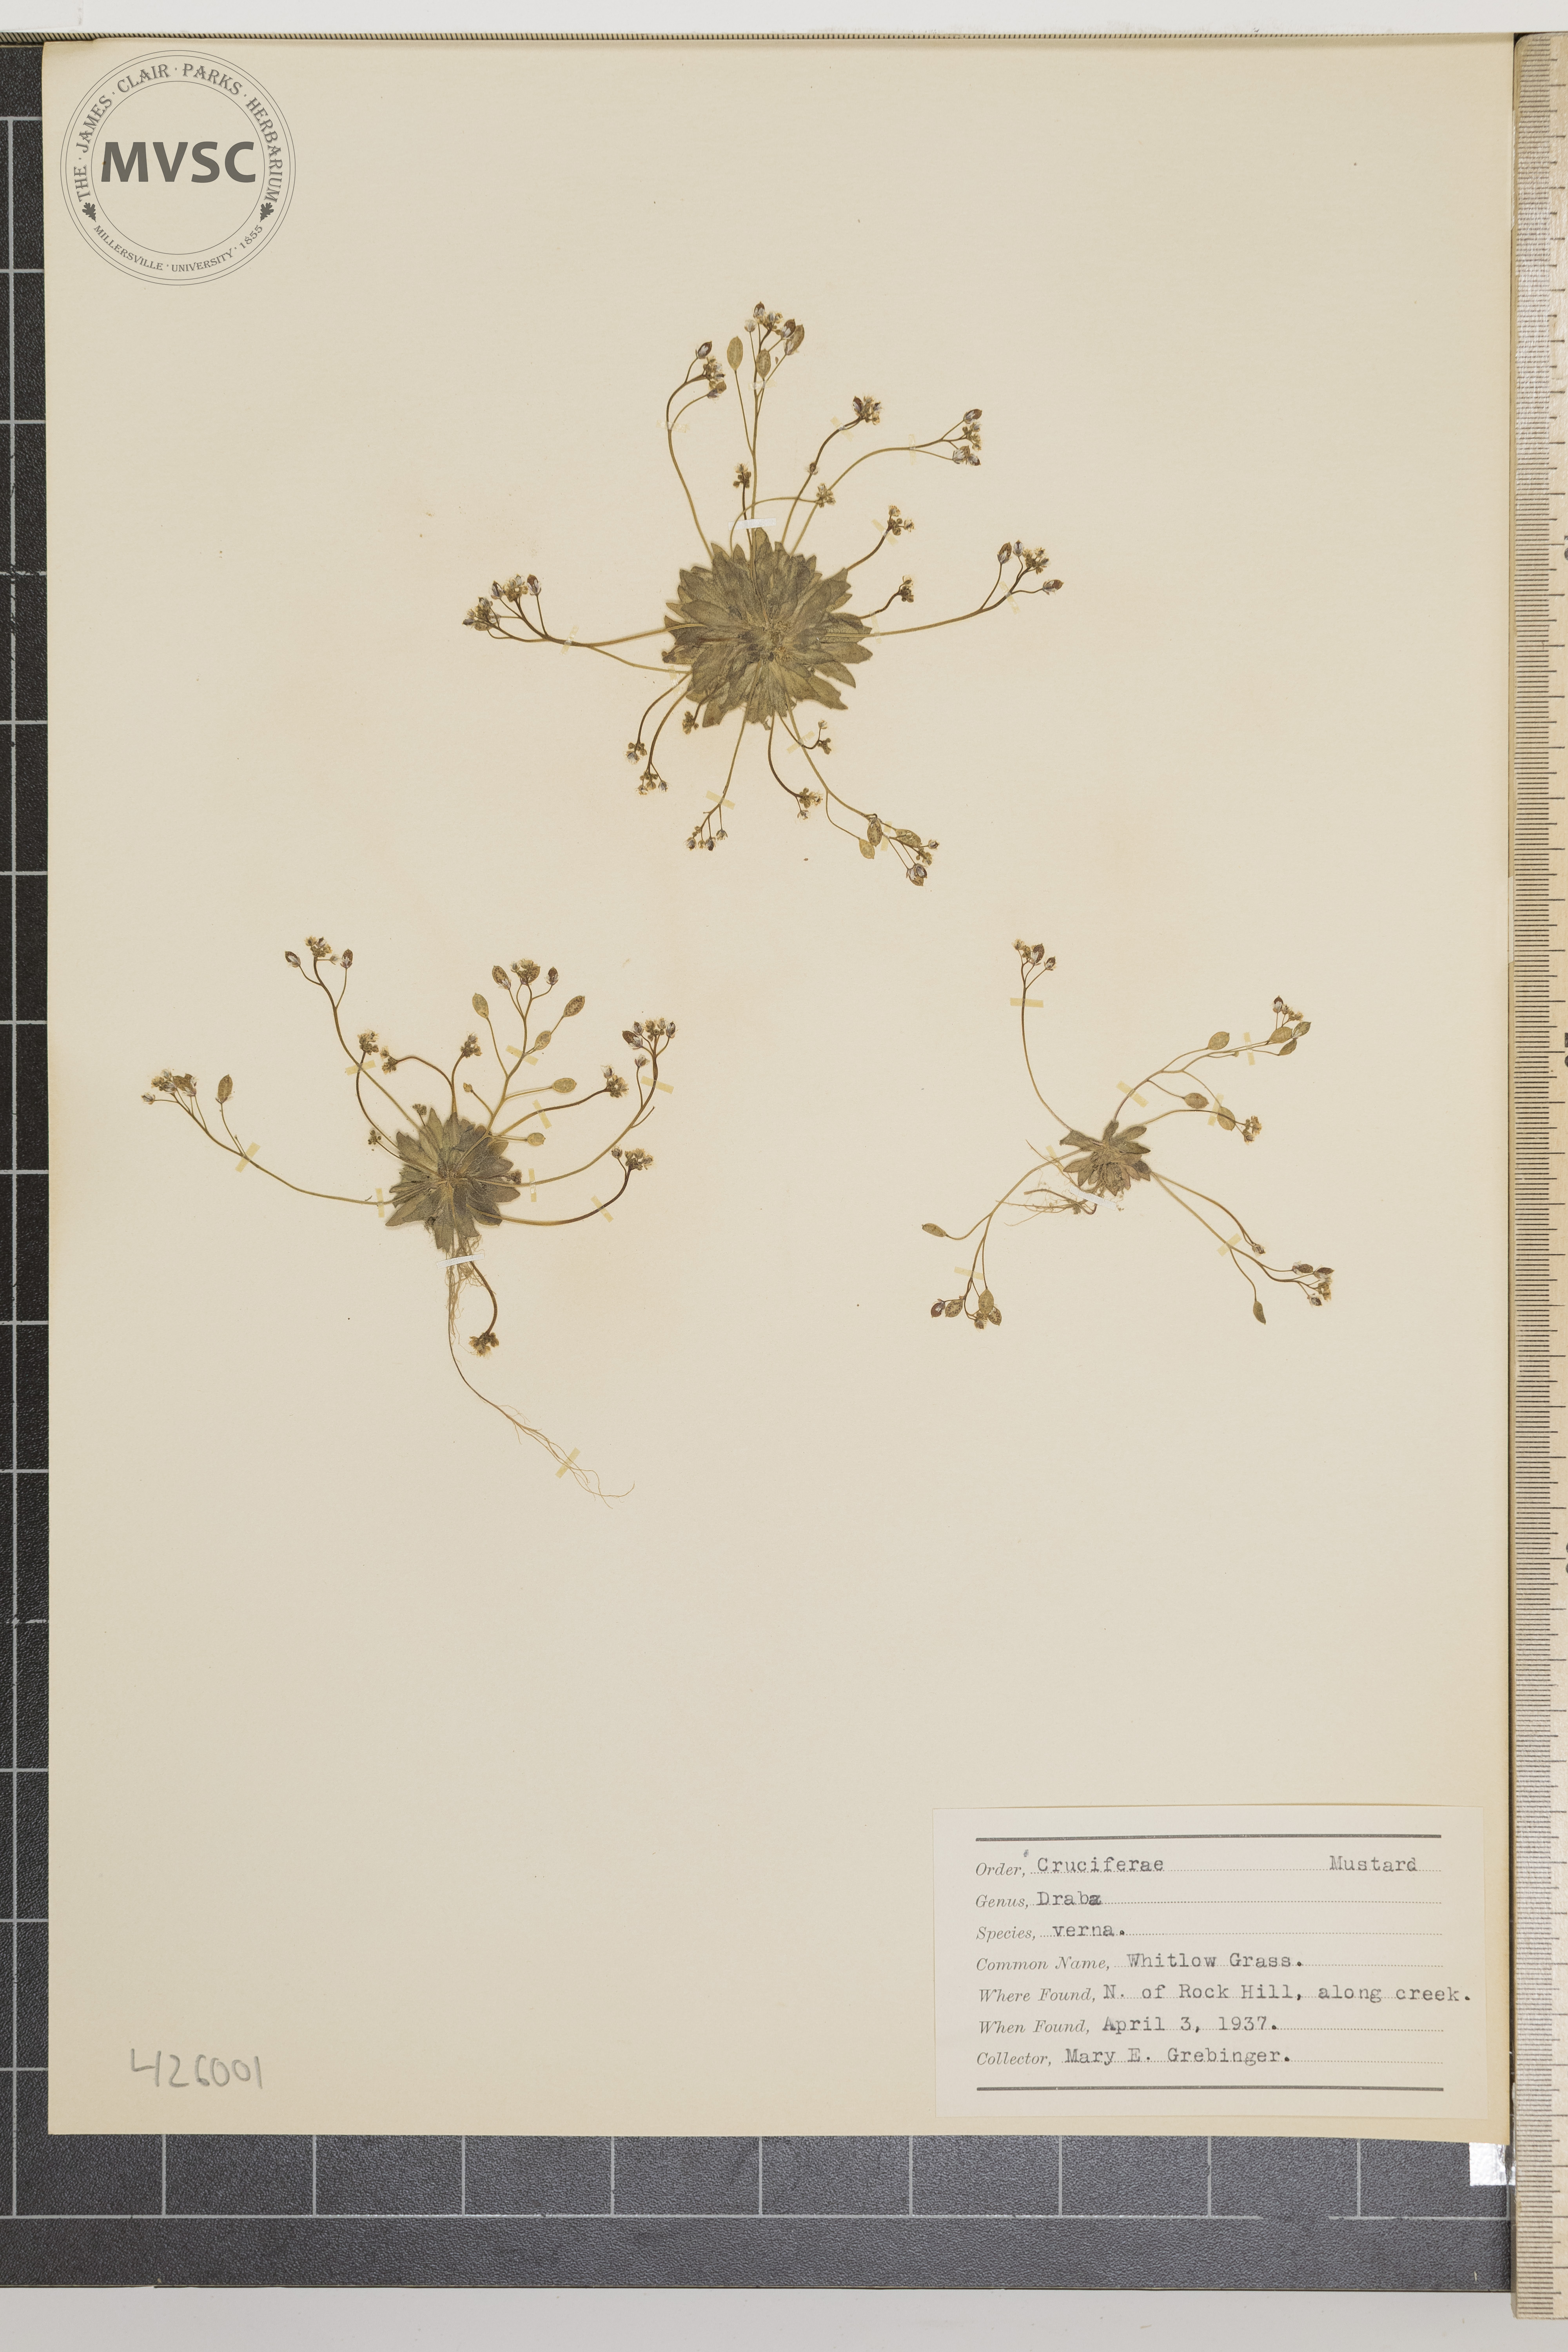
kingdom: Plantae
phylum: Tracheophyta
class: Magnoliopsida
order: Brassicales
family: Brassicaceae
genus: Draba
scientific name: Draba verna
